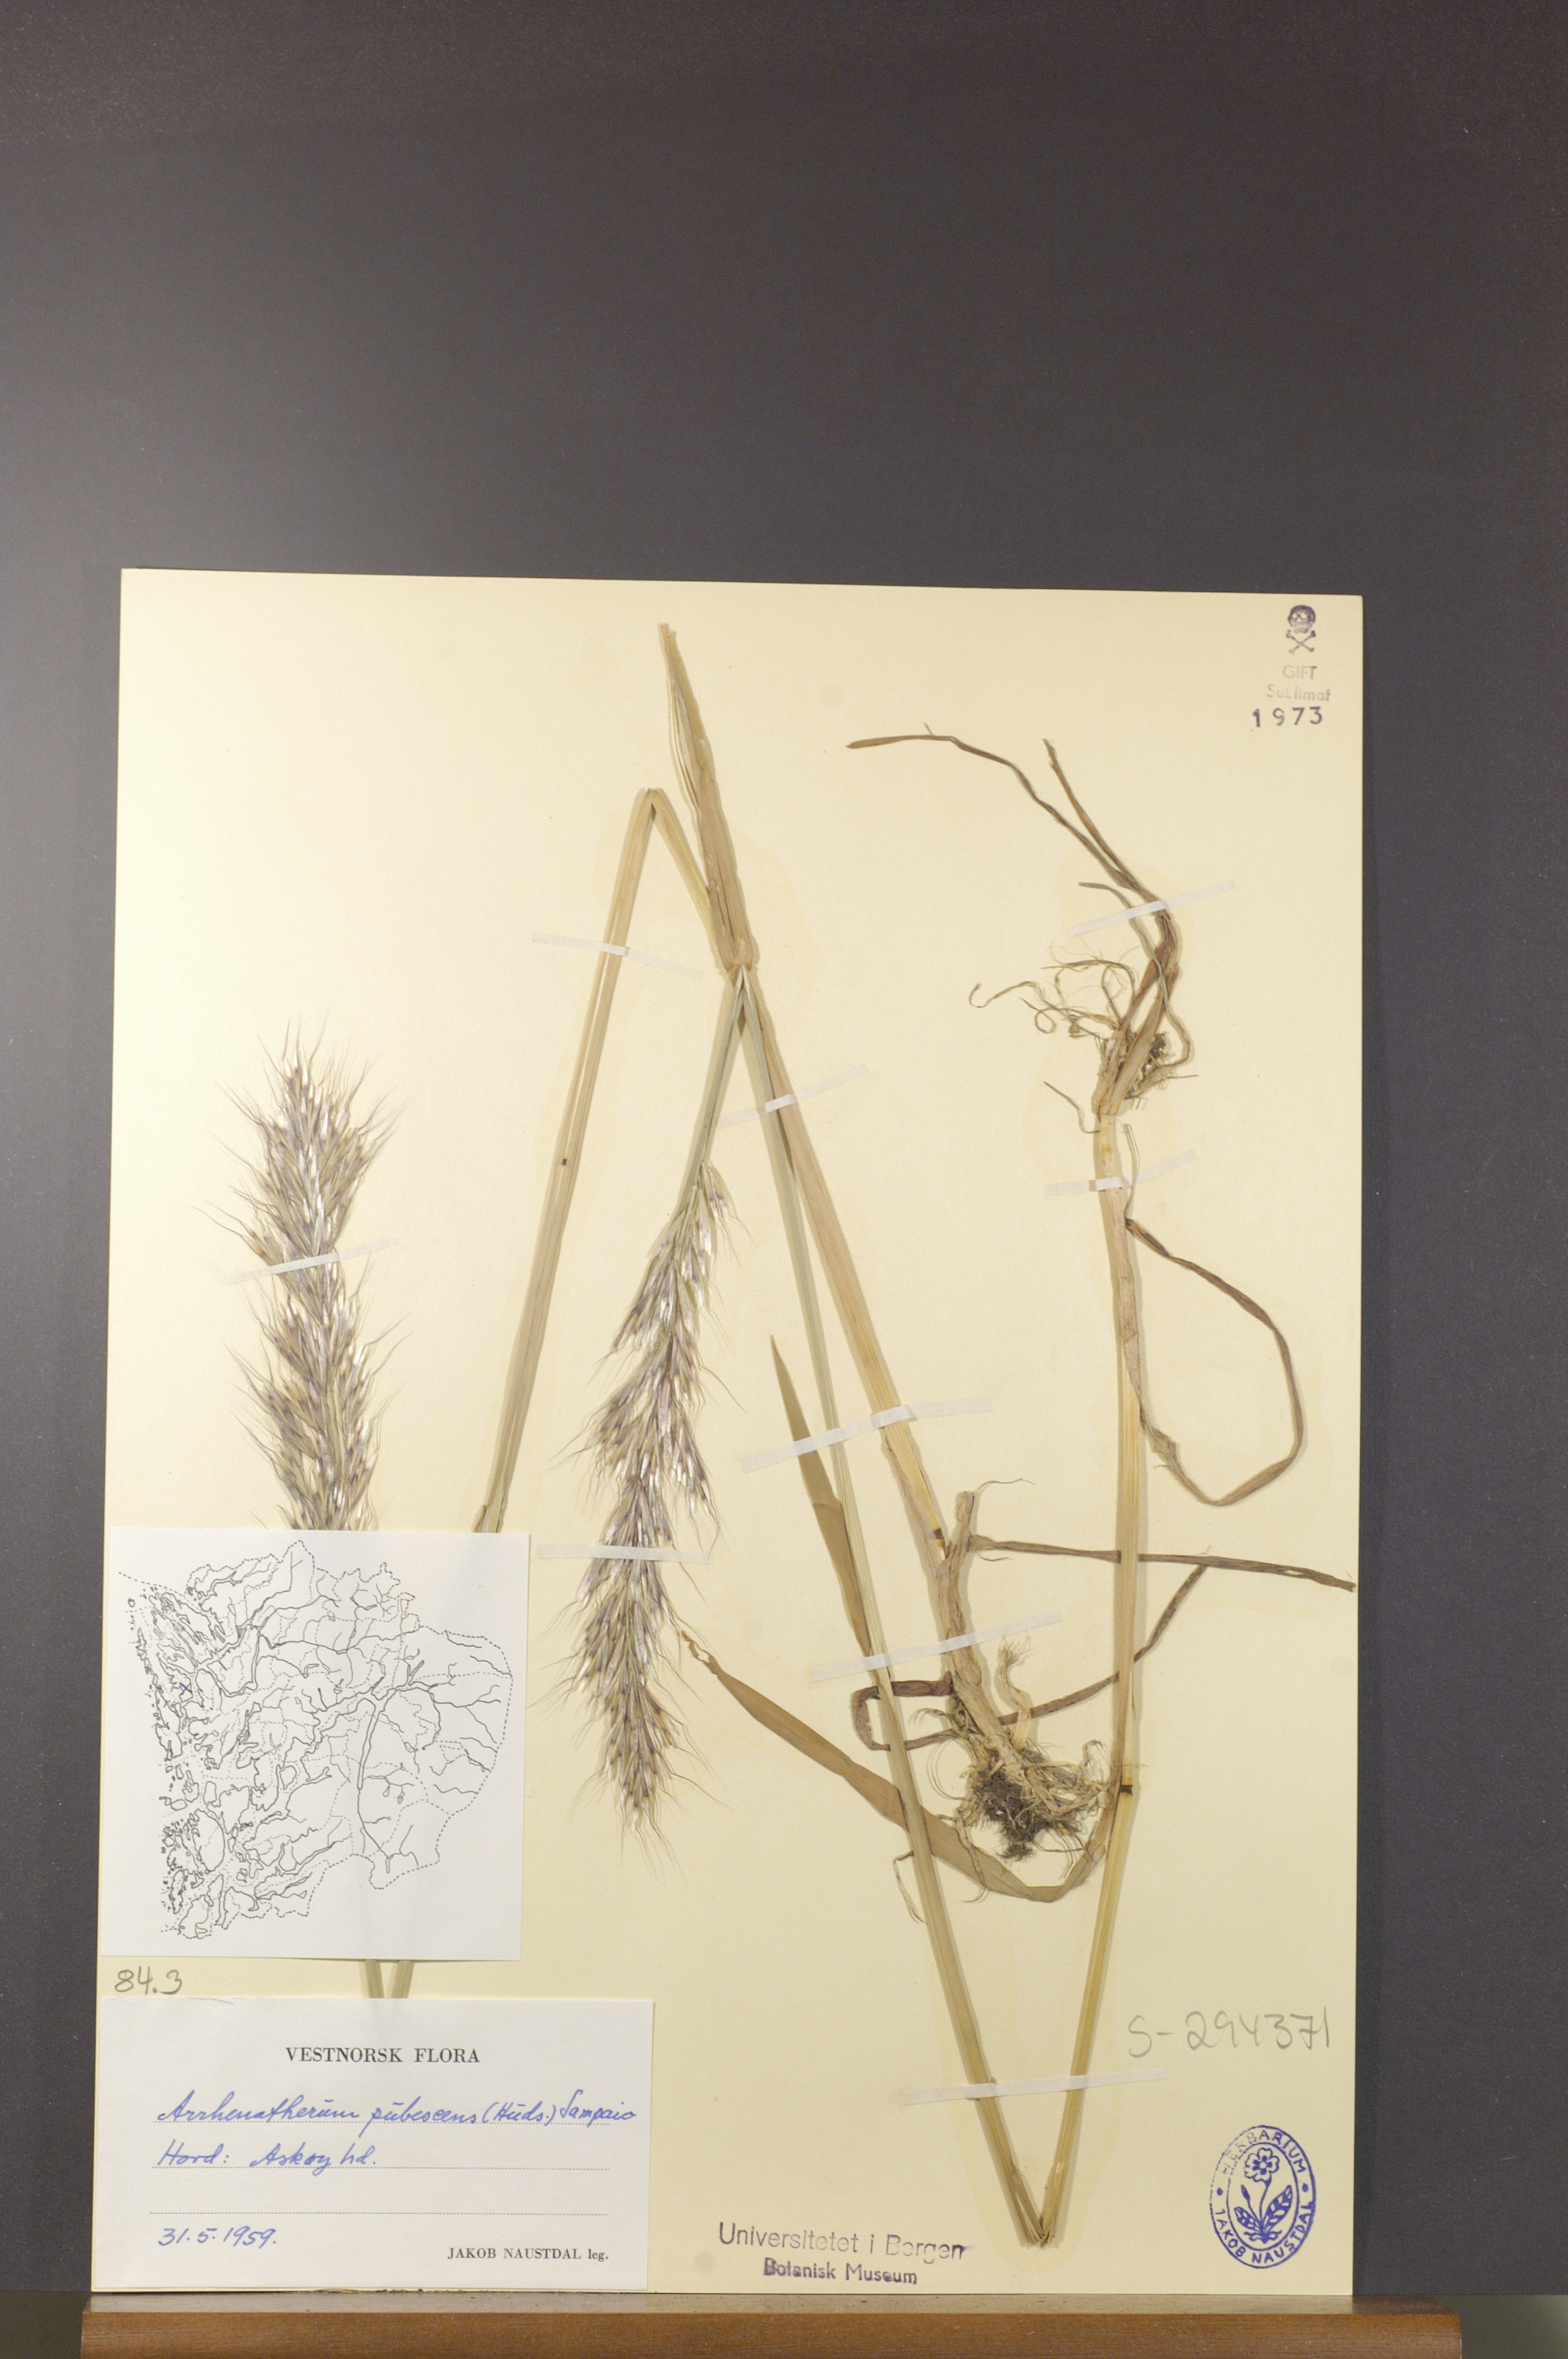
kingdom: Plantae
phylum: Tracheophyta
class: Liliopsida
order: Poales
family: Poaceae
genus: Avenula
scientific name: Avenula pubescens
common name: Downy alpine oatgrass
